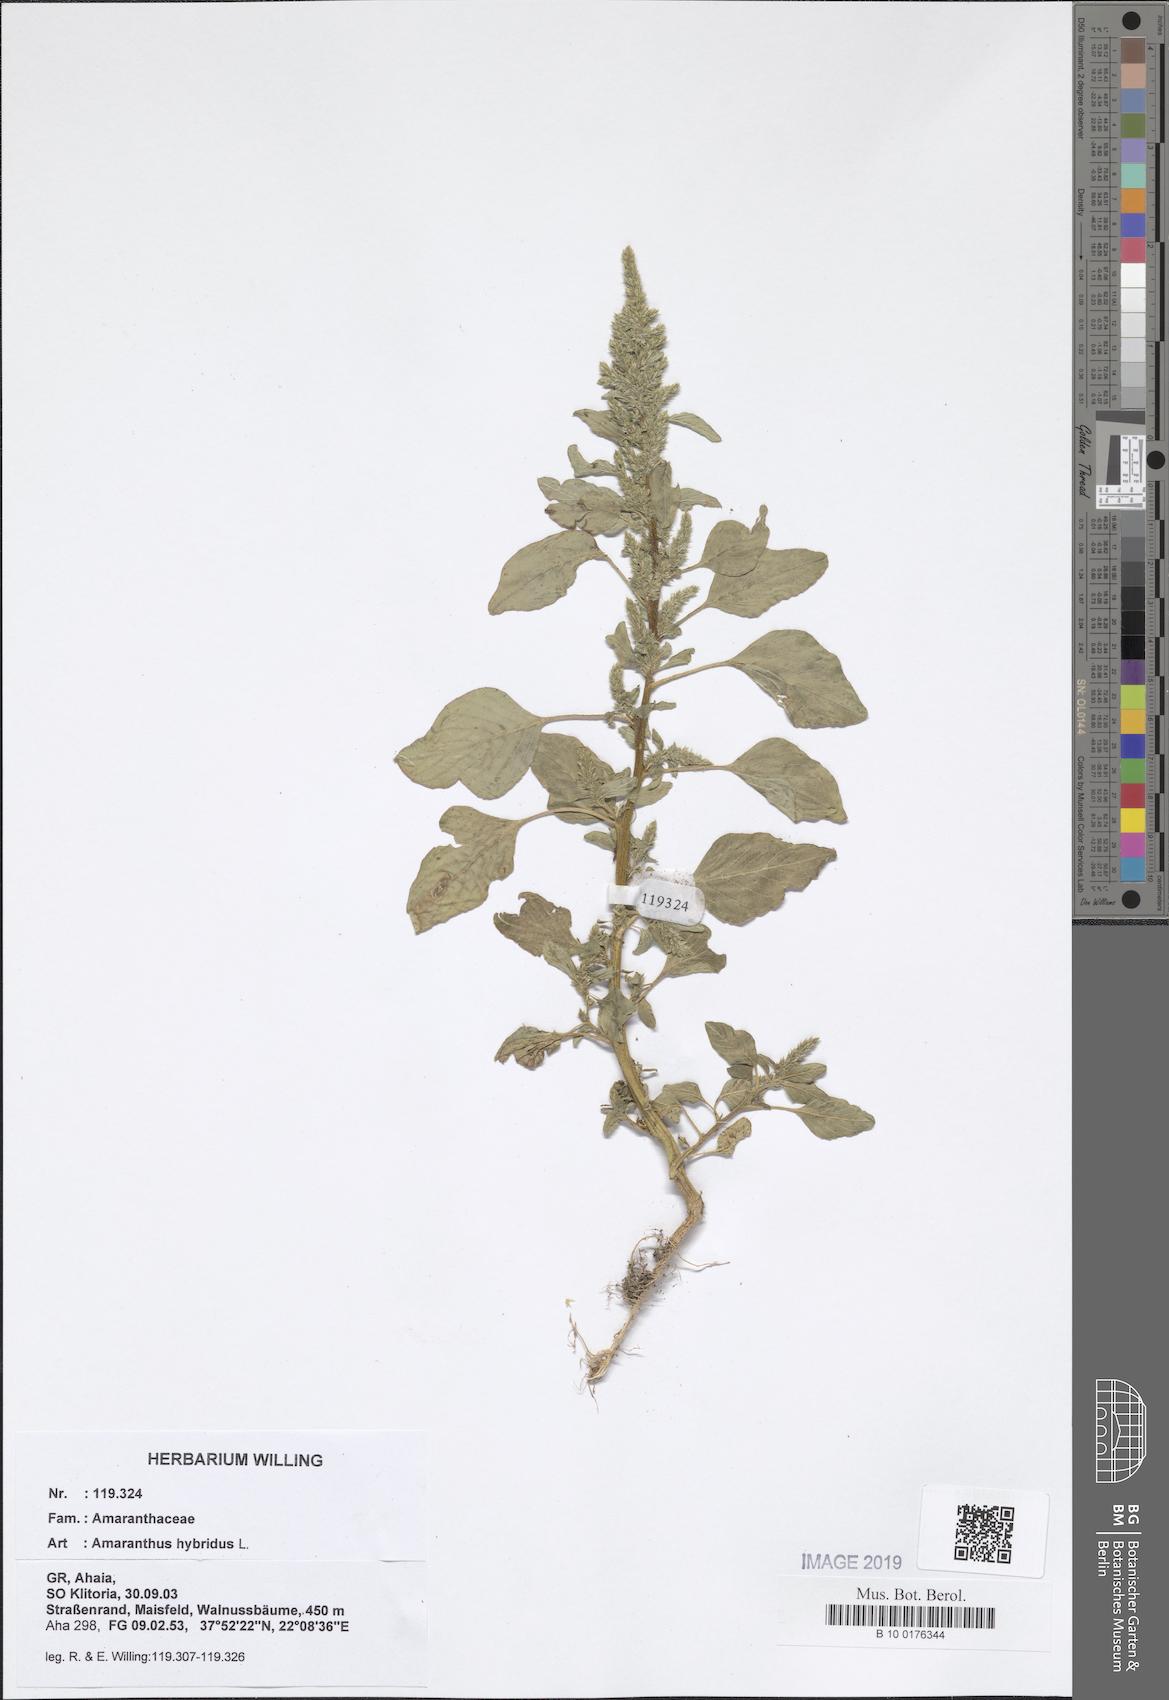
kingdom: Plantae
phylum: Tracheophyta
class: Magnoliopsida
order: Caryophyllales
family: Amaranthaceae
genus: Amaranthus
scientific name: Amaranthus hybridus
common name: Green amaranth
